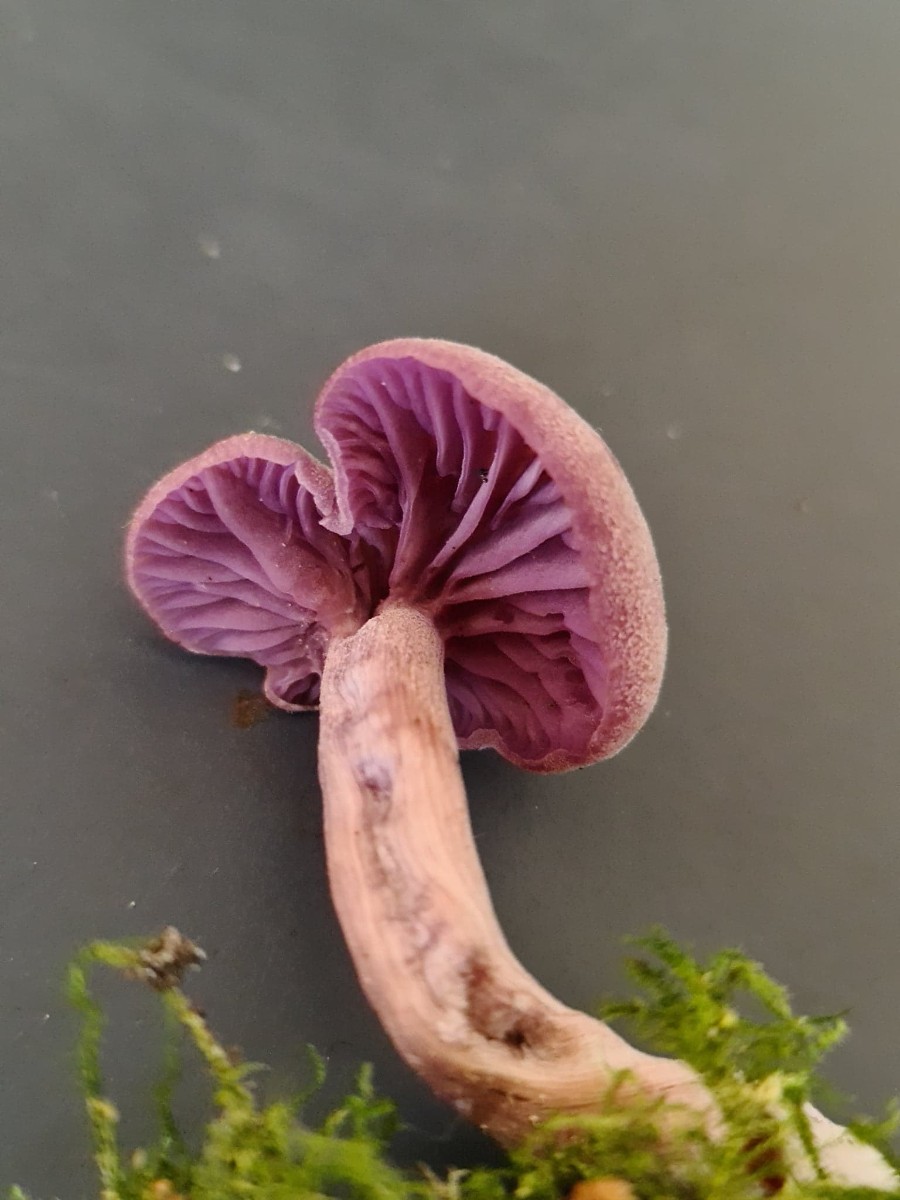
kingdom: Fungi
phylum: Basidiomycota
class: Agaricomycetes
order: Agaricales
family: Hydnangiaceae
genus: Laccaria
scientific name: Laccaria amethystina
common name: violet ametysthat
